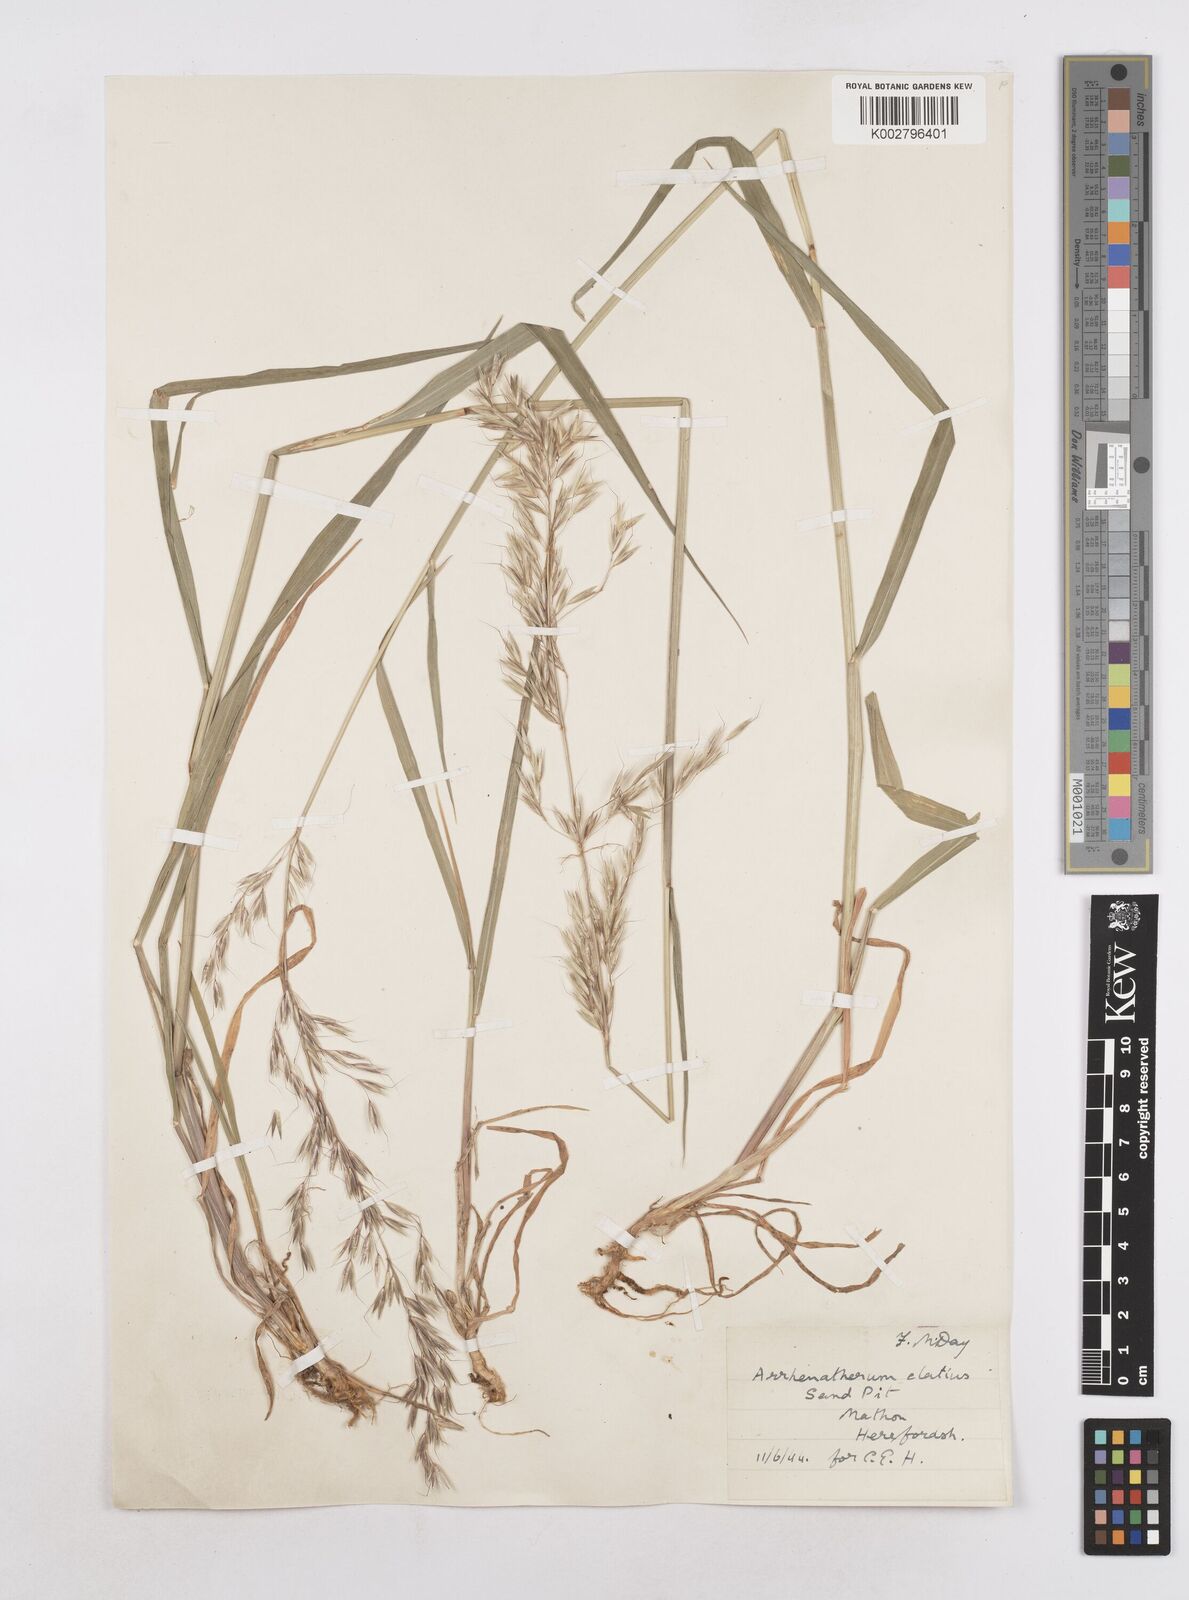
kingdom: Plantae
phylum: Tracheophyta
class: Liliopsida
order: Poales
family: Poaceae
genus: Arrhenatherum
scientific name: Arrhenatherum elatius
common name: Tall oatgrass
